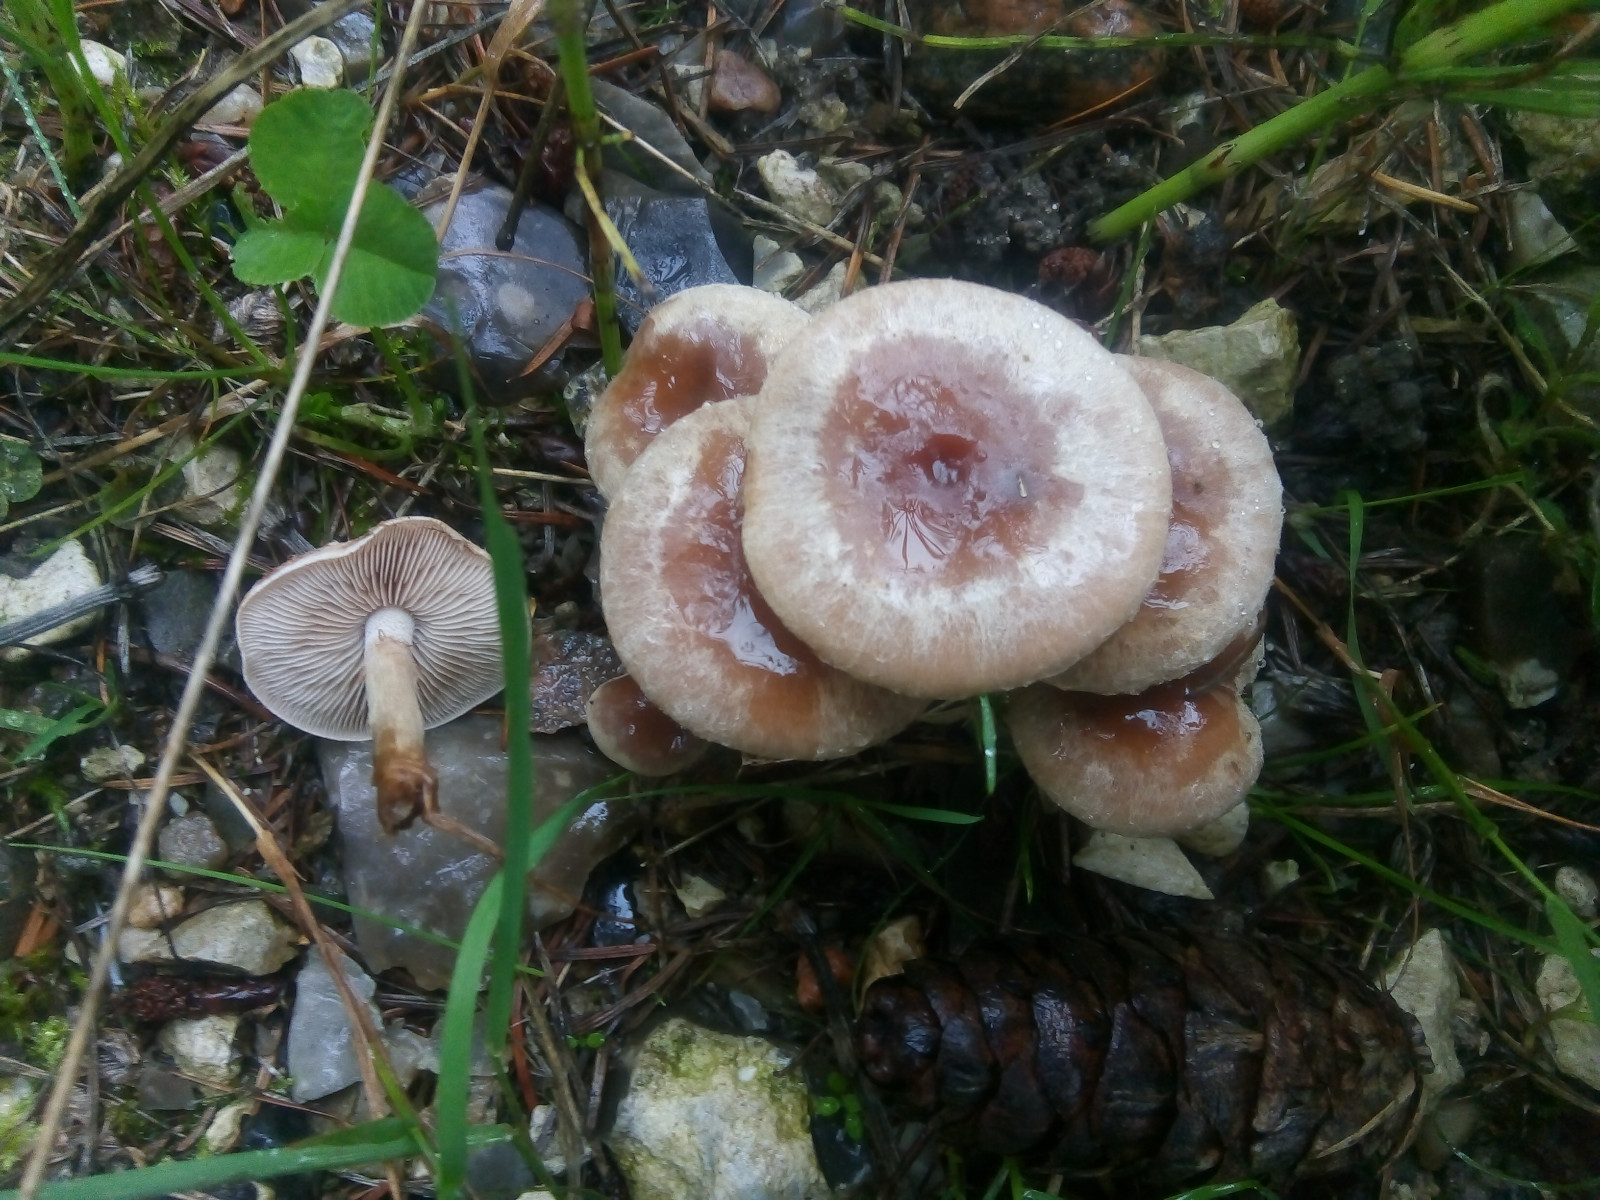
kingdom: Fungi
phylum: Basidiomycota
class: Agaricomycetes
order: Agaricales
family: Hymenogastraceae
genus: Hebeloma
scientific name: Hebeloma mesophaeum
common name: lerbrun tåreblad
